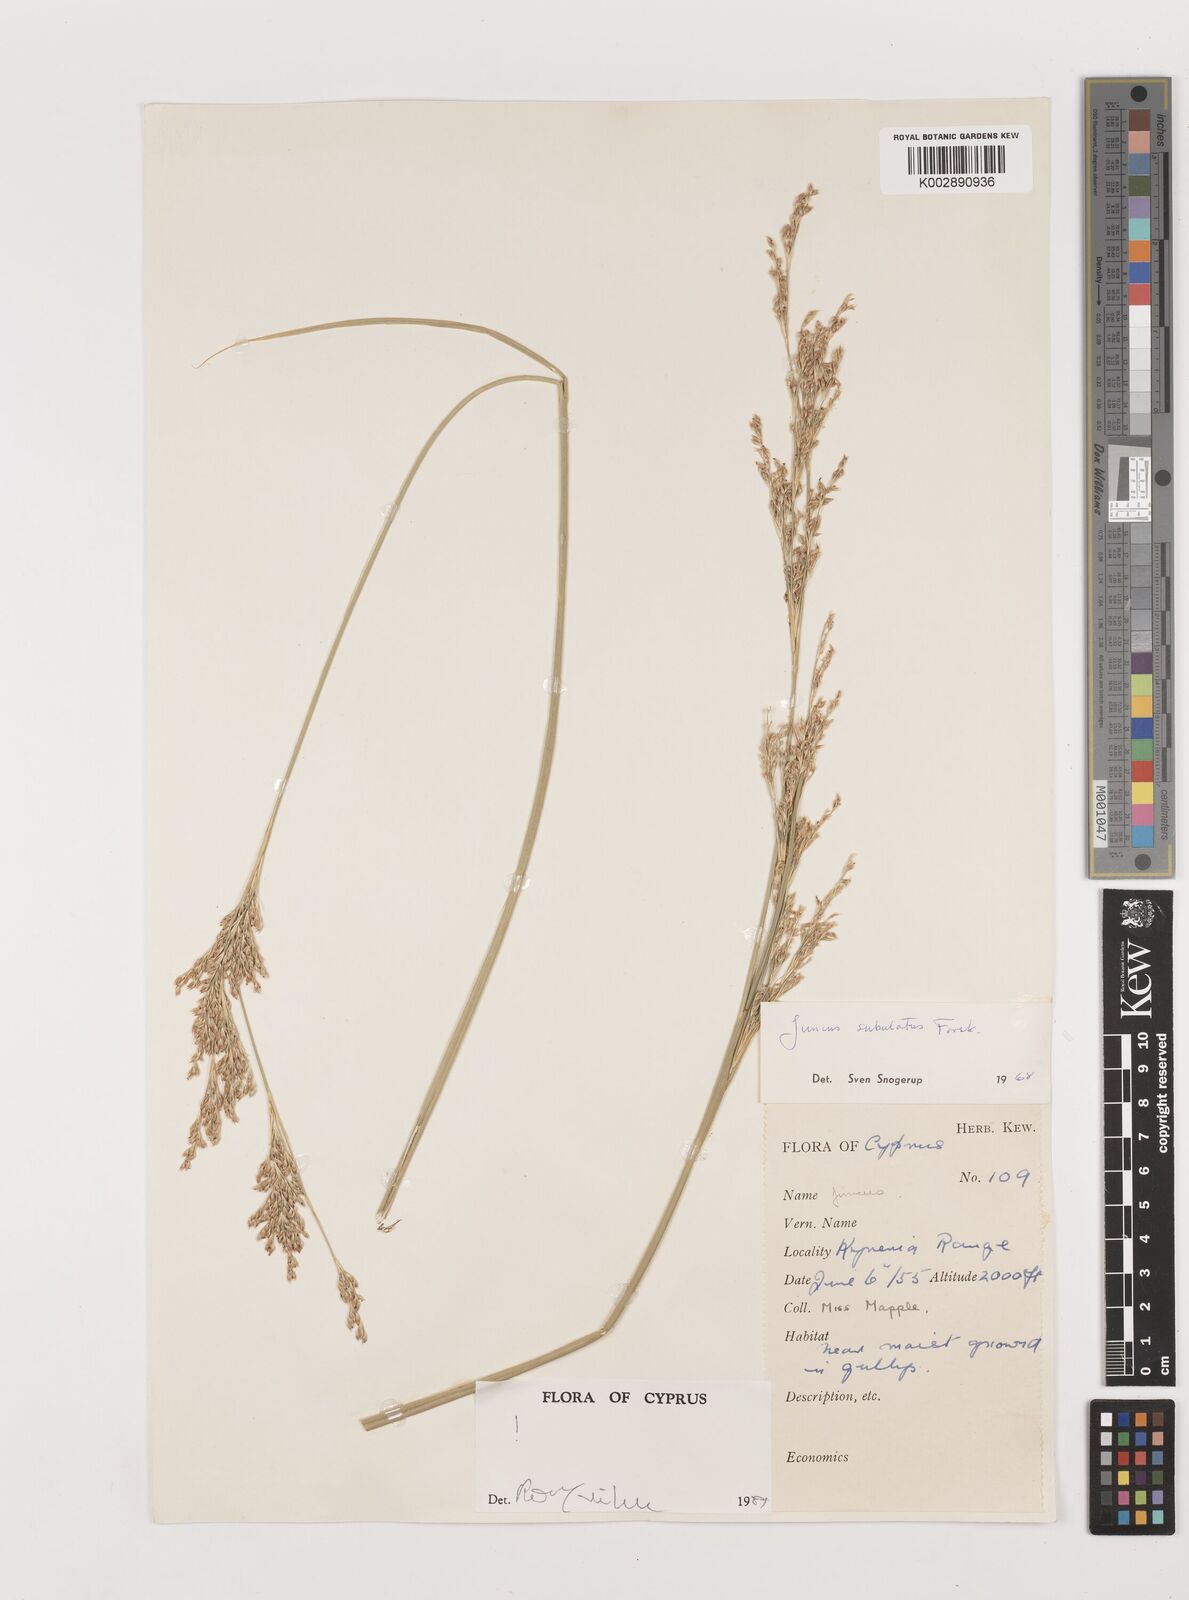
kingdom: Plantae
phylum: Tracheophyta
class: Liliopsida
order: Poales
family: Juncaceae
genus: Juncus
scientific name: Juncus subulatus
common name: Somerset rush
